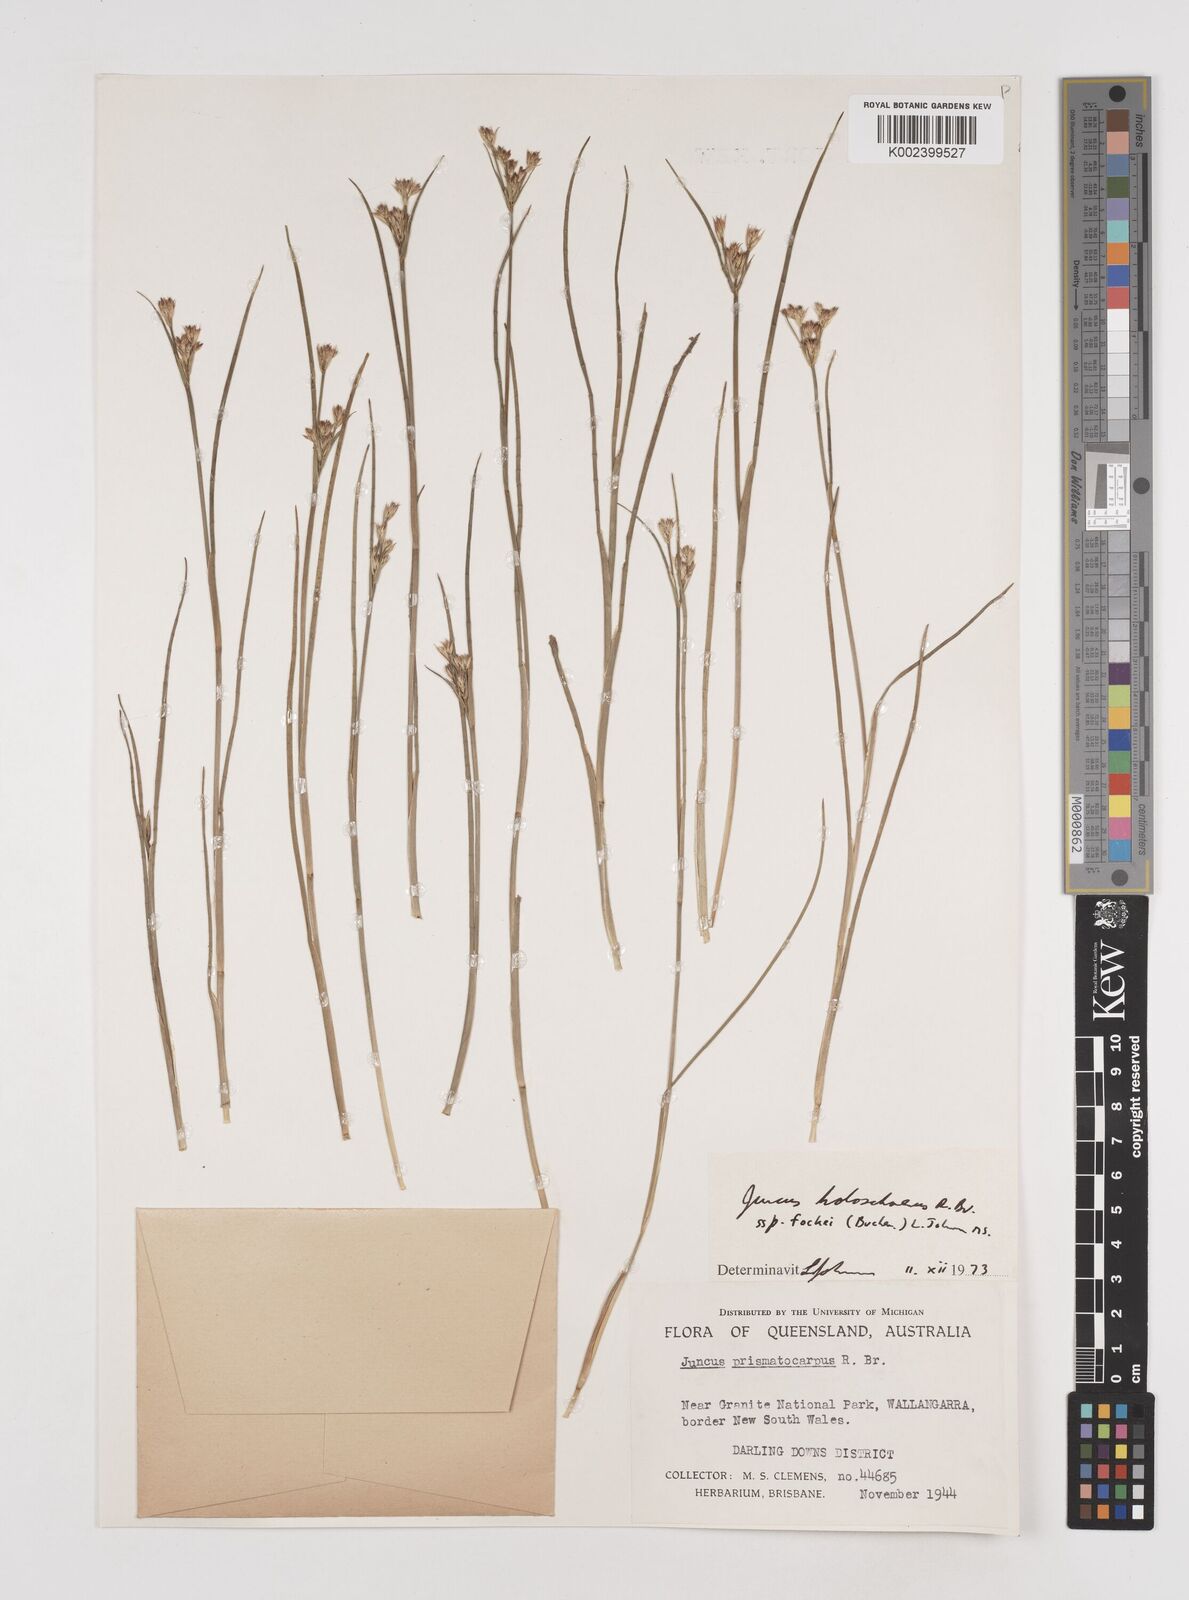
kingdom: Plantae
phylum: Tracheophyta
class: Liliopsida
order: Poales
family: Juncaceae
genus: Juncus
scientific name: Juncus fockei
